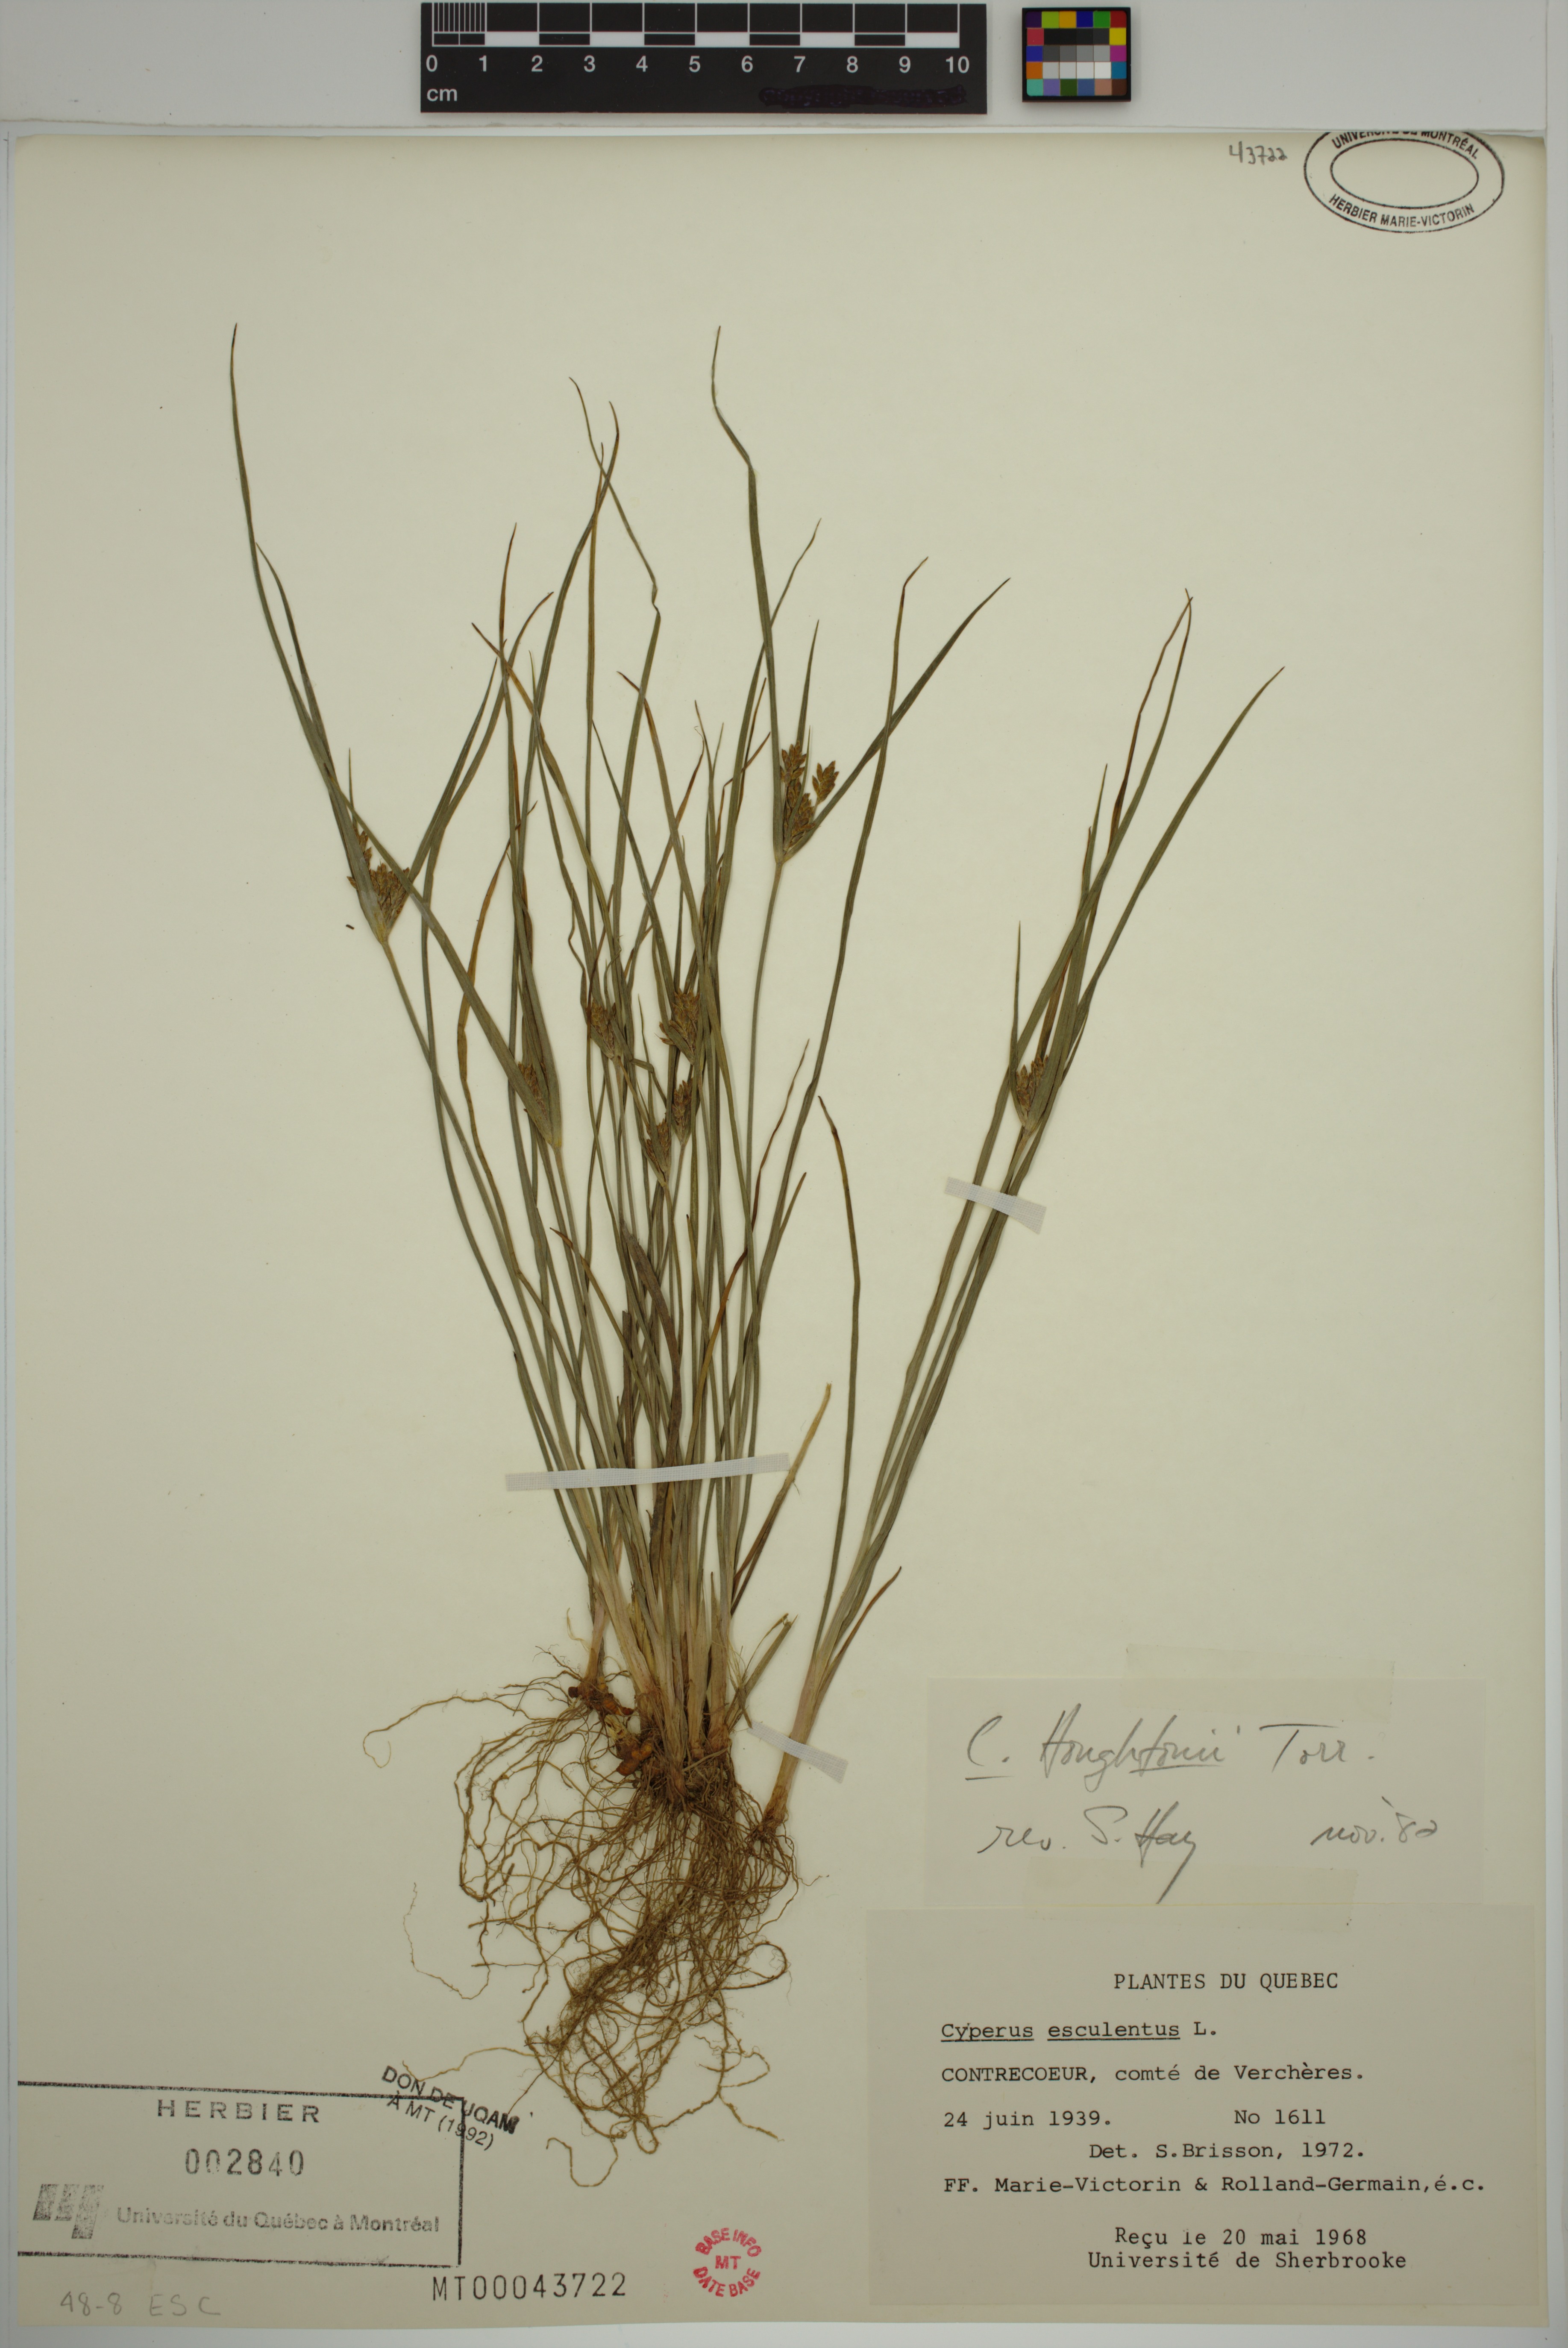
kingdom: Plantae
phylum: Tracheophyta
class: Liliopsida
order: Poales
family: Cyperaceae
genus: Cyperus
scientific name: Cyperus houghtonii
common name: Houghton's cyperus
